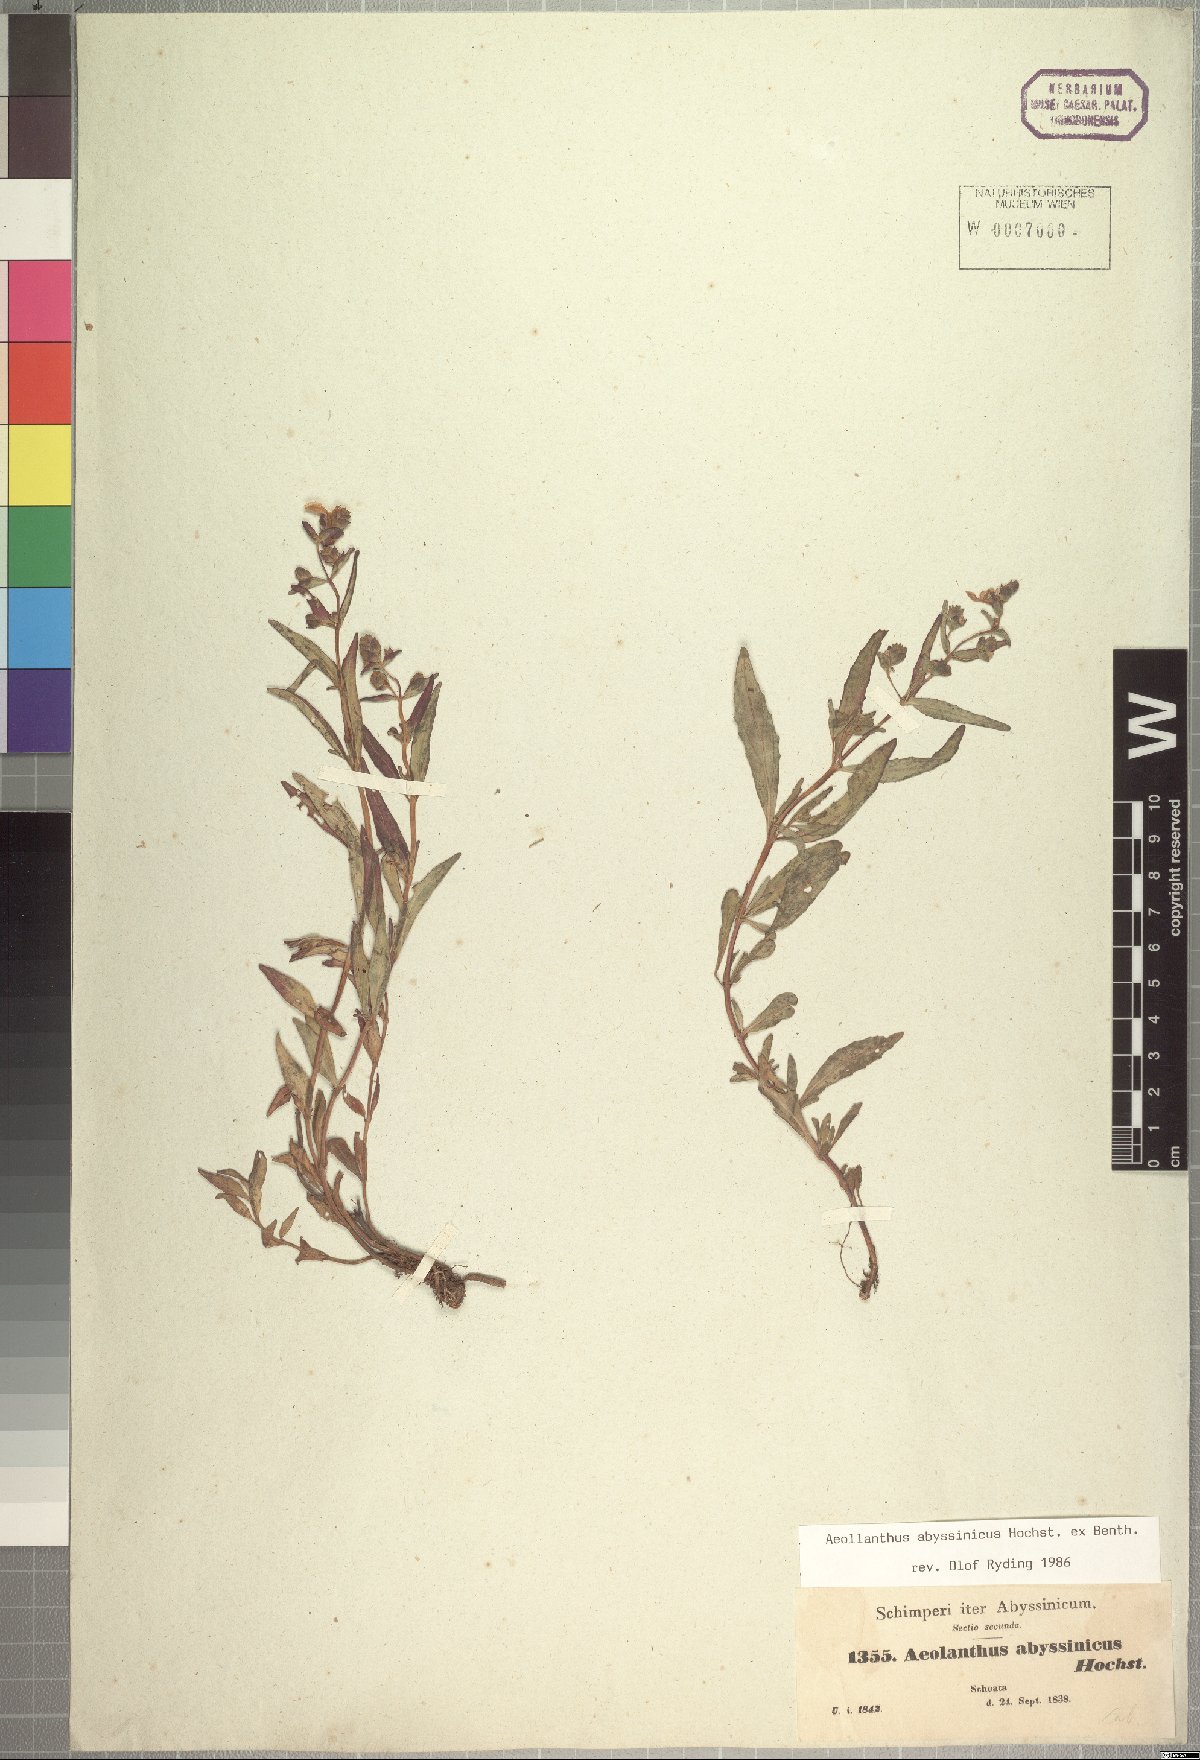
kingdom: Plantae
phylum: Tracheophyta
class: Magnoliopsida
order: Lamiales
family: Lamiaceae
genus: Aeollanthus
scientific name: Aeollanthus abyssinicus
